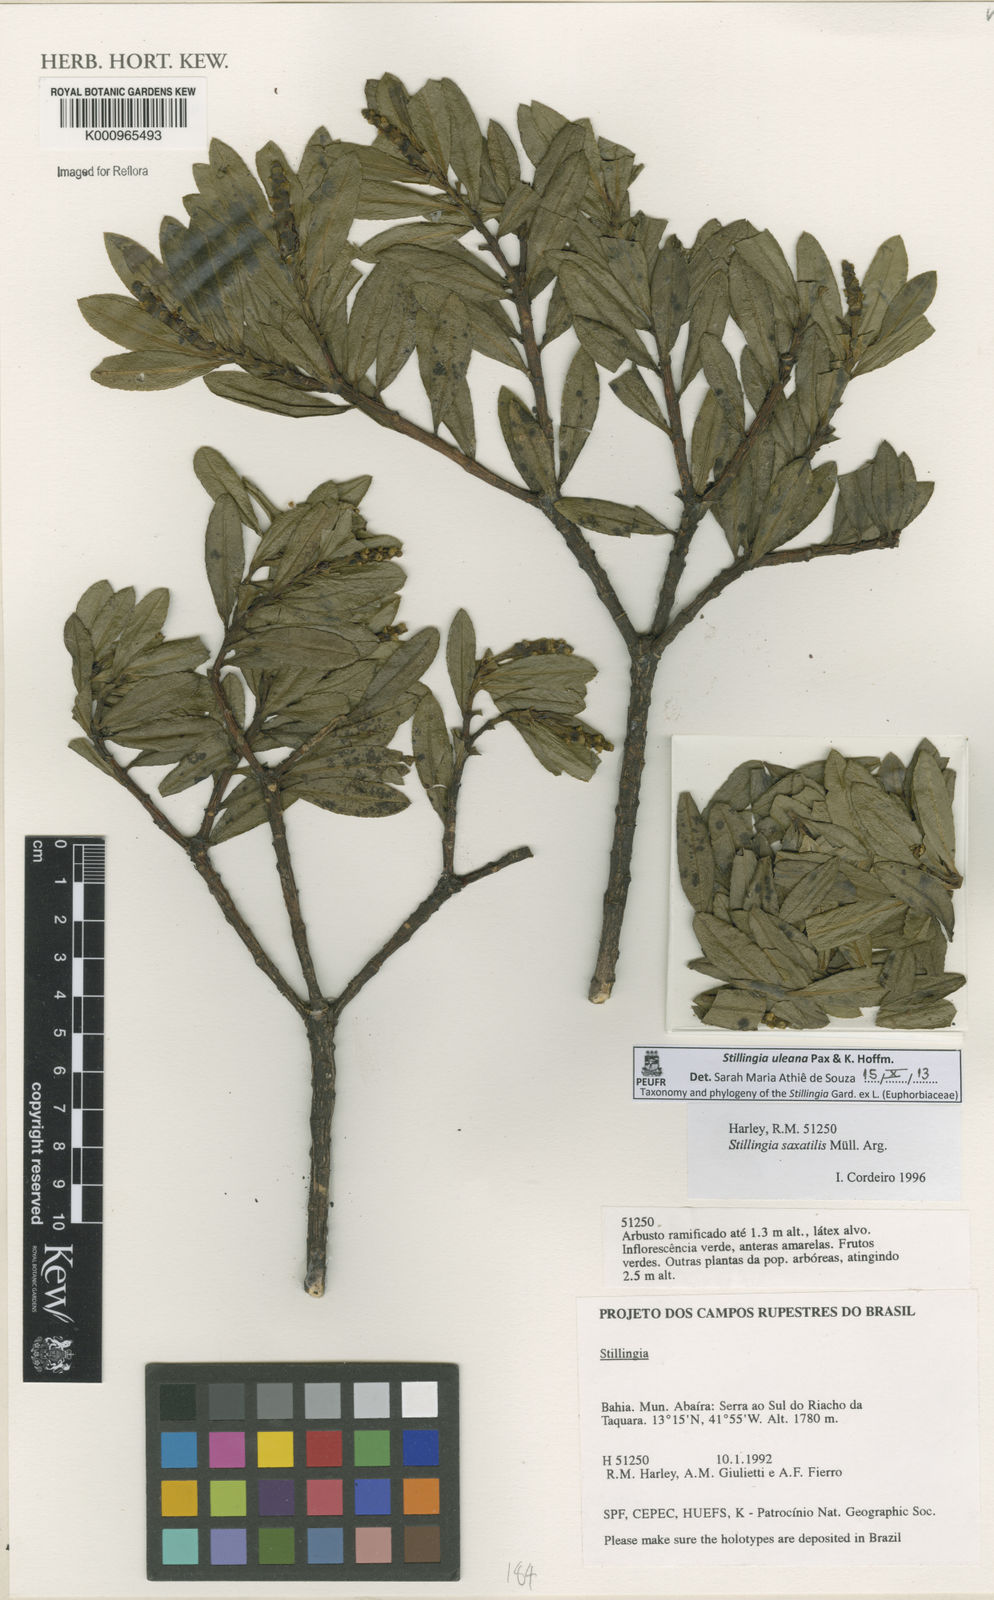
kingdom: Plantae
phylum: Tracheophyta
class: Magnoliopsida
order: Malpighiales
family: Euphorbiaceae
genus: Stillingia
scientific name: Stillingia uleana
